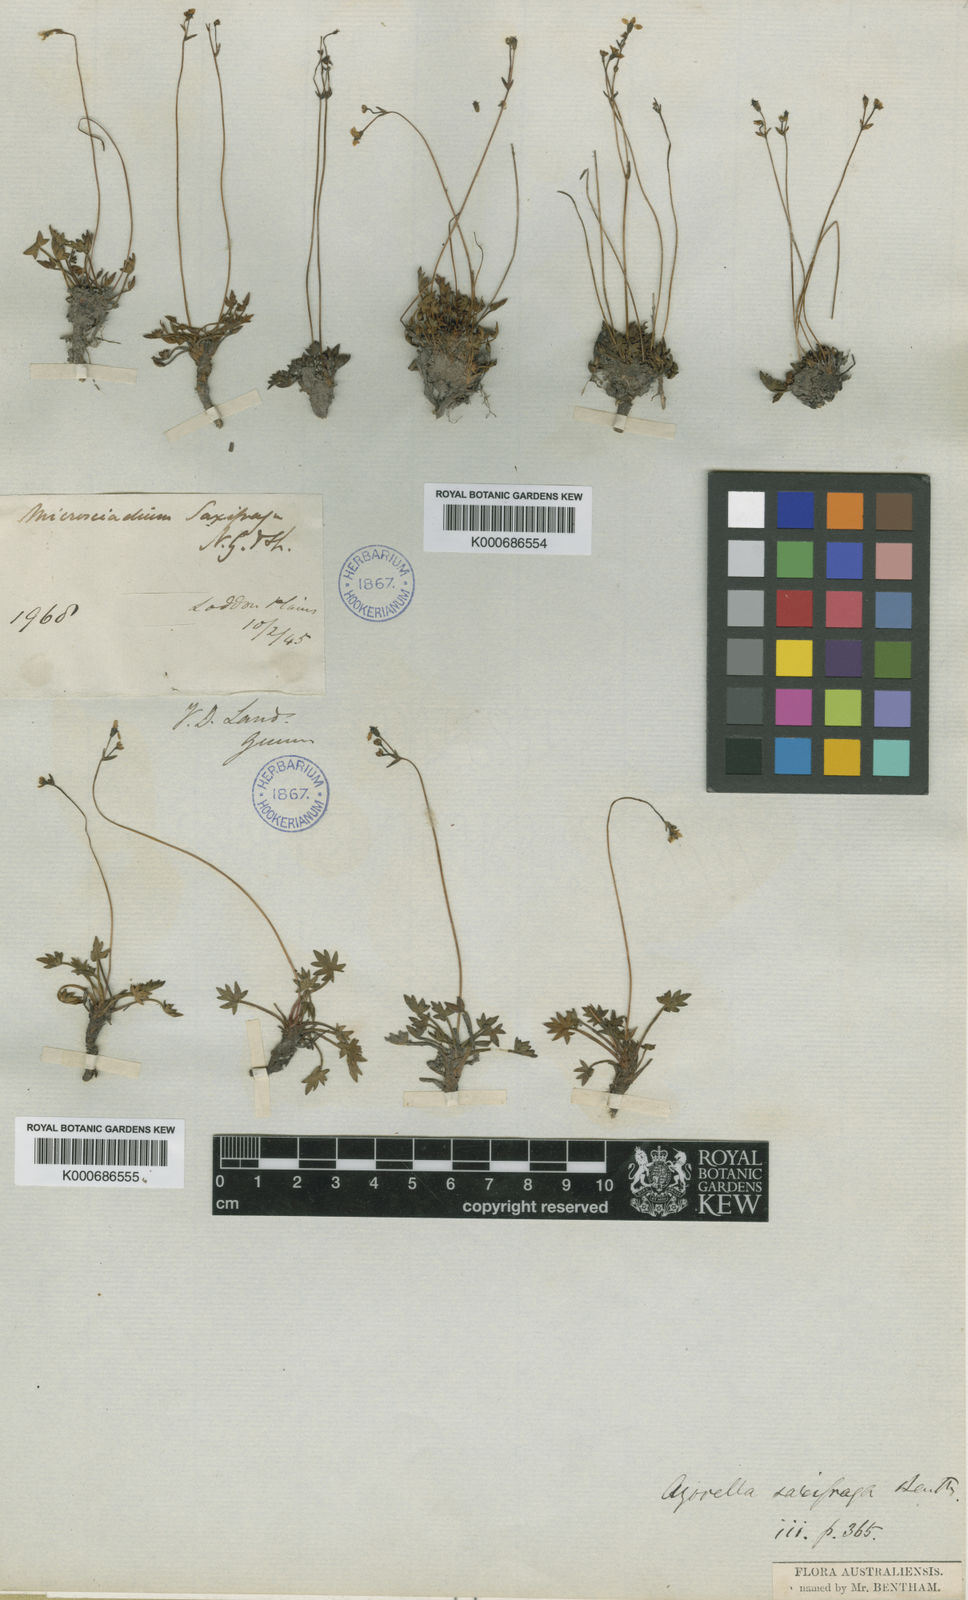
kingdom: Plantae
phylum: Tracheophyta
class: Magnoliopsida
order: Apiales
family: Apiaceae
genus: Oschatzia
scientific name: Oschatzia saxifraga
